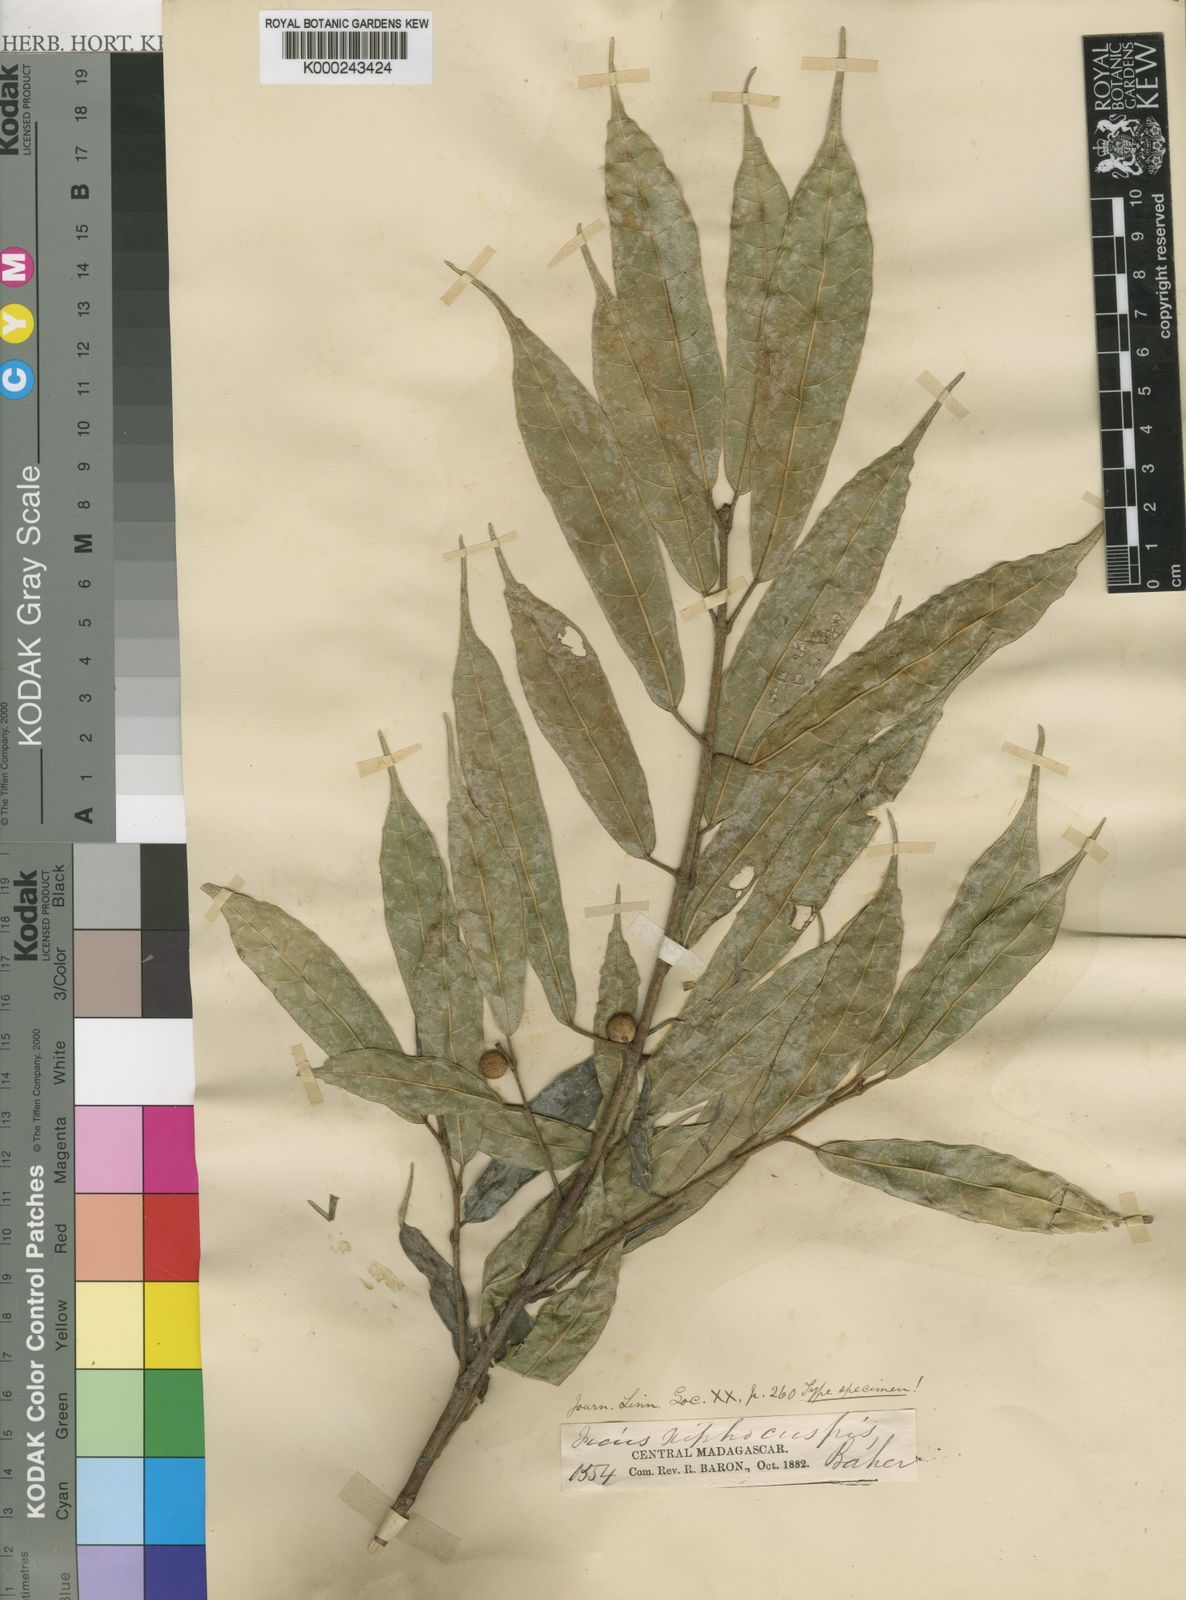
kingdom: Plantae
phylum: Tracheophyta
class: Magnoliopsida
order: Rosales
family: Moraceae
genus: Ficus
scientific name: Ficus exasperata
